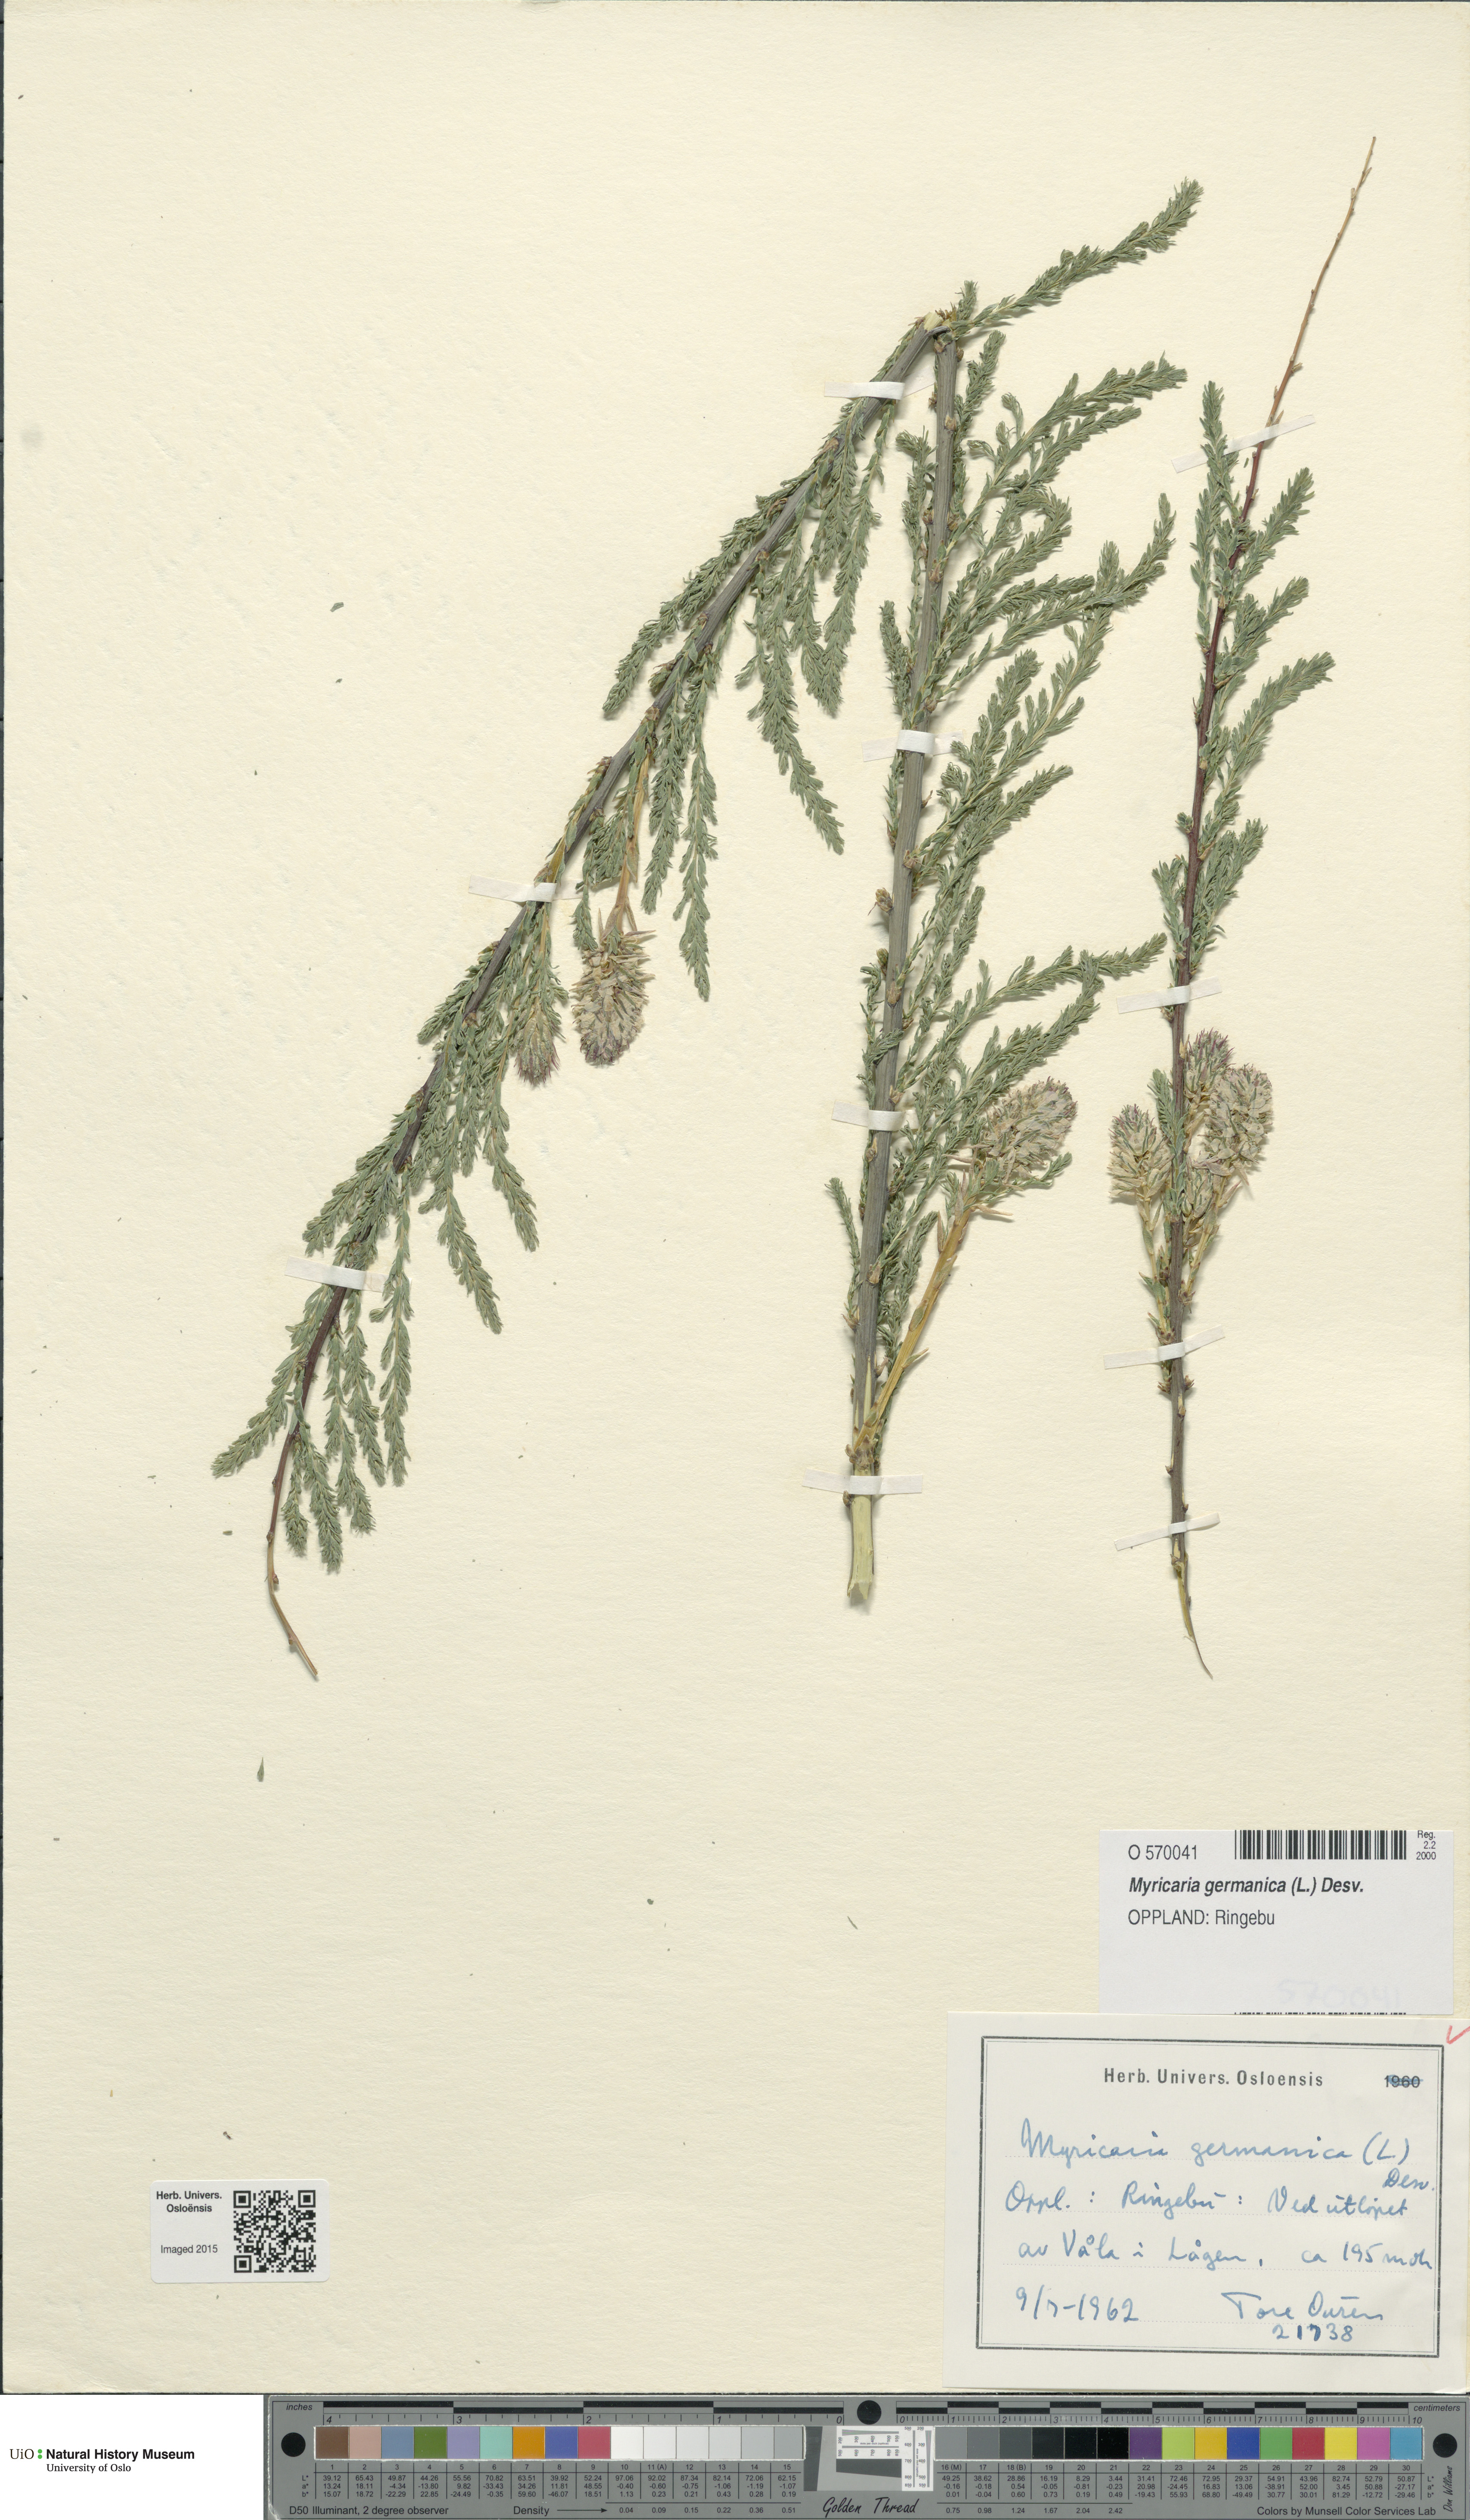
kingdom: Plantae
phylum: Tracheophyta
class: Magnoliopsida
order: Caryophyllales
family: Tamaricaceae
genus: Myricaria
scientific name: Myricaria germanica
